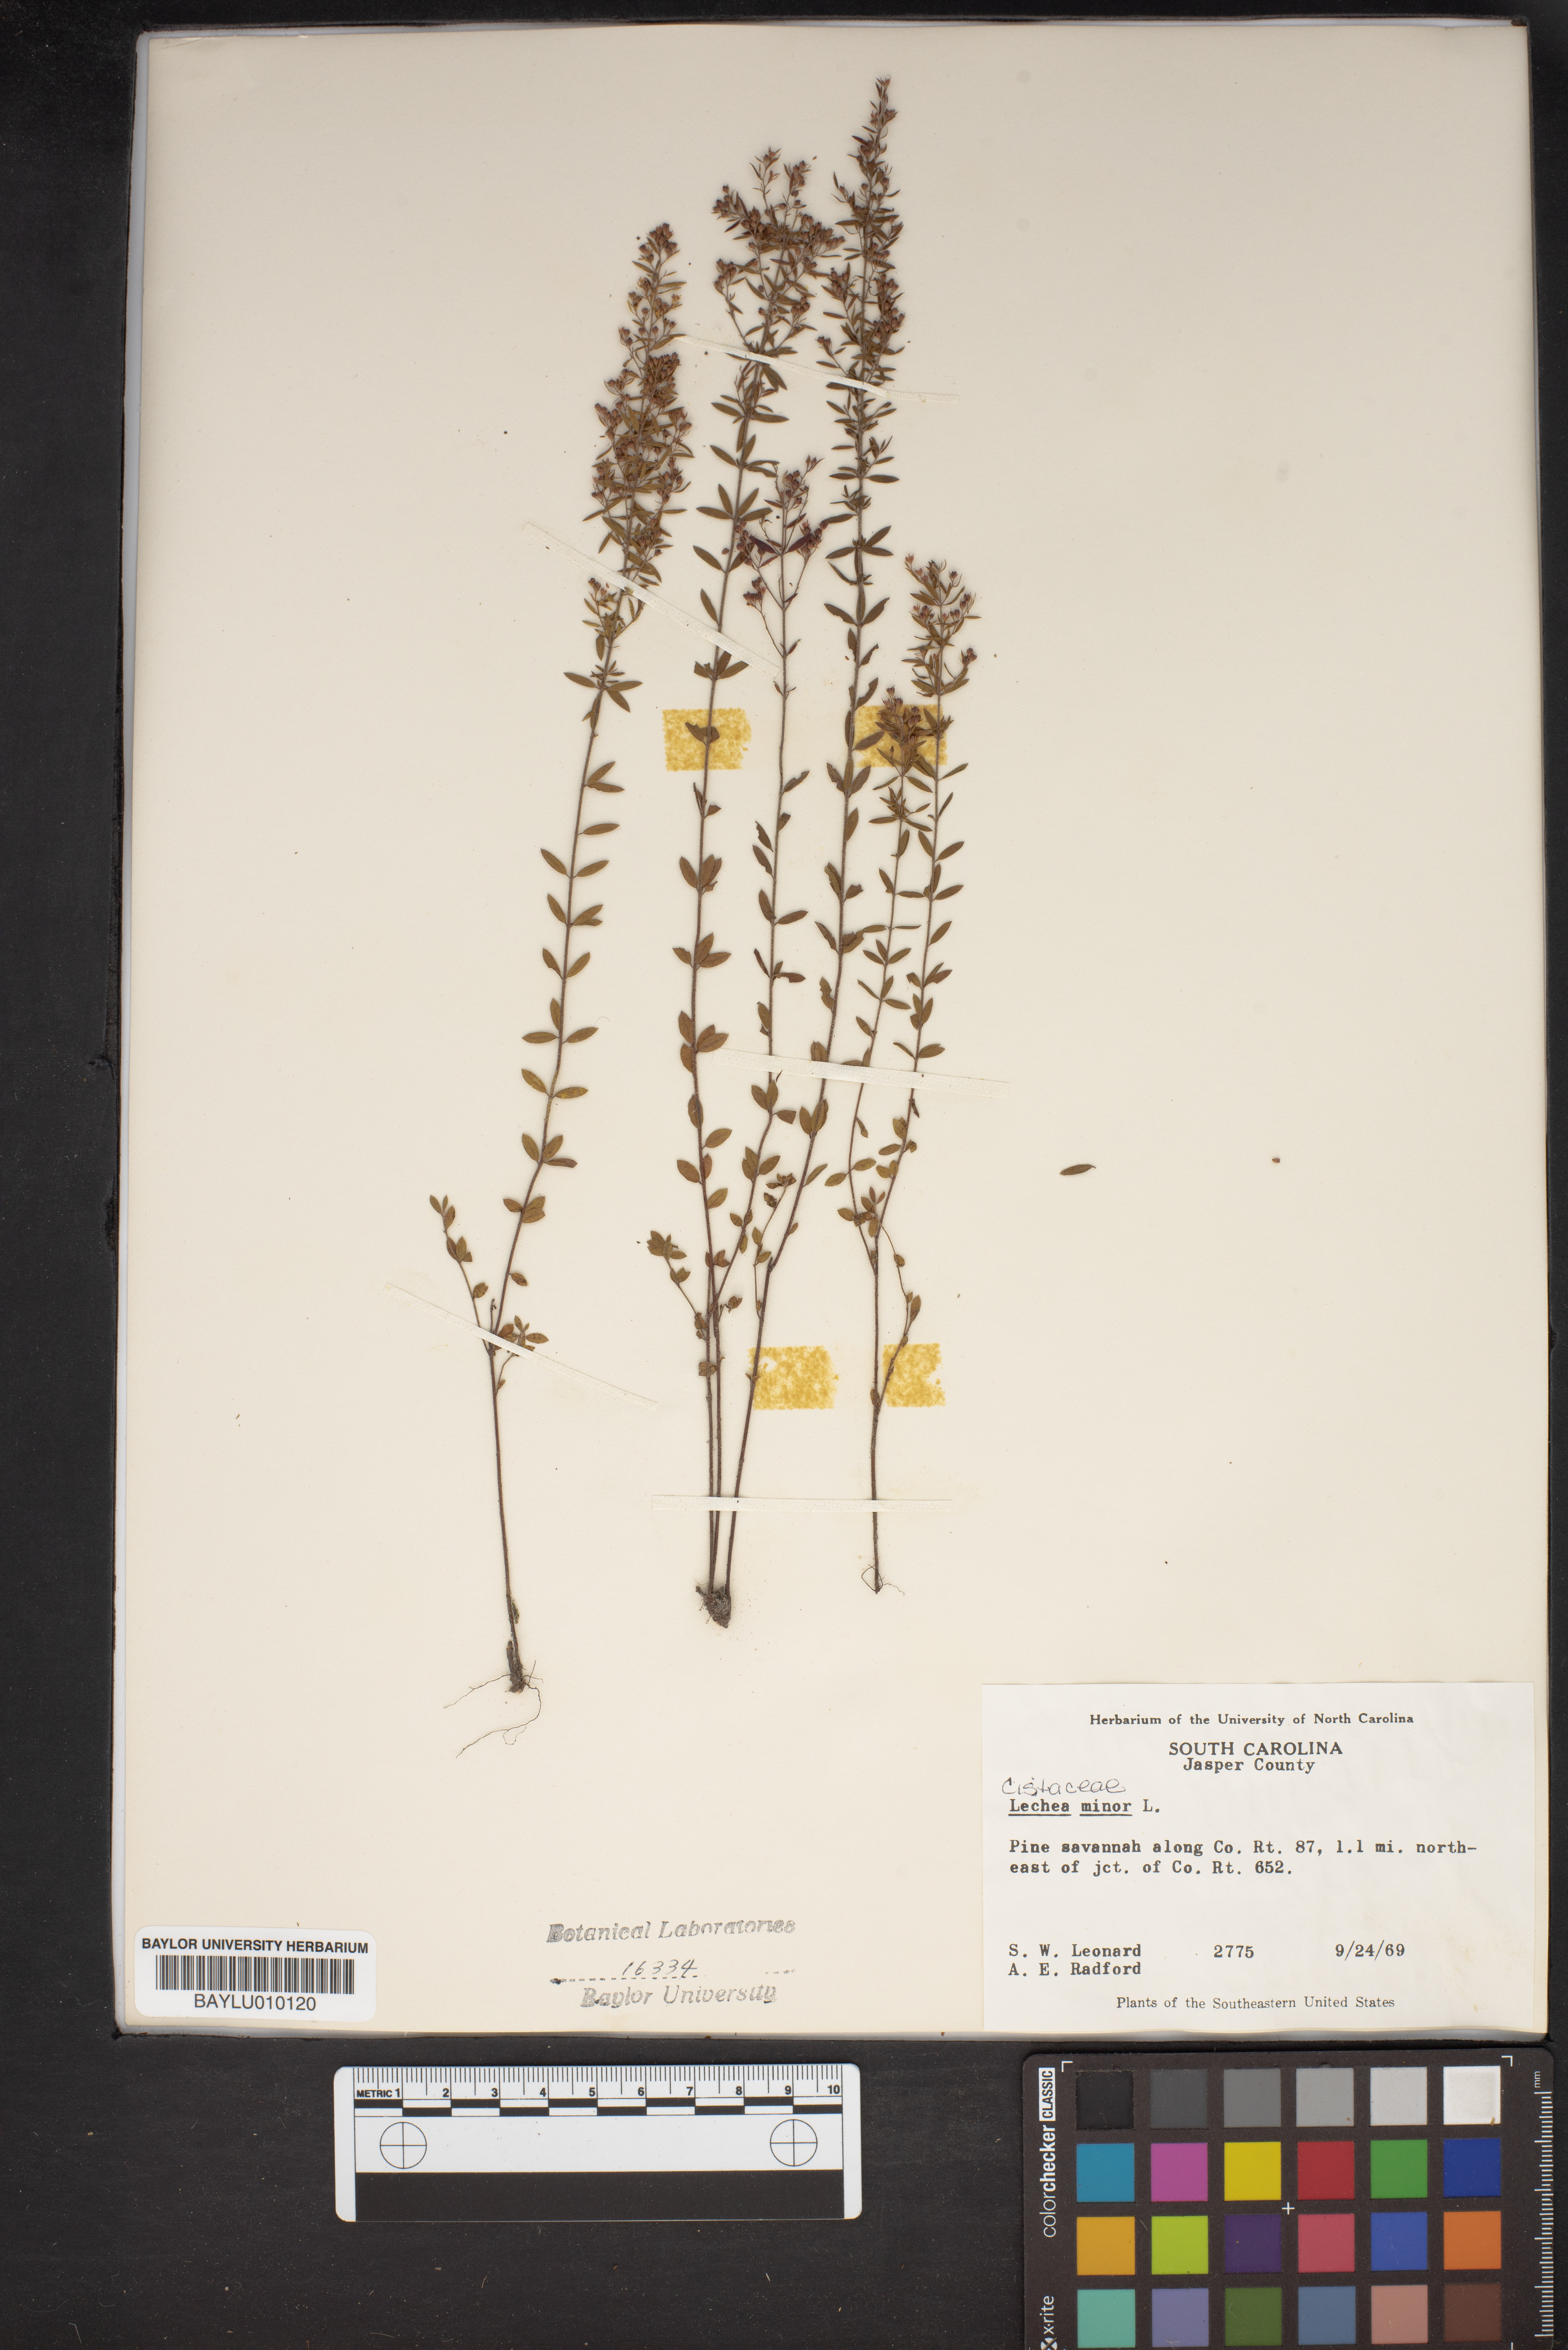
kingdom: Plantae
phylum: Tracheophyta
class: Magnoliopsida
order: Malvales
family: Cistaceae
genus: Lechea
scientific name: Lechea minor
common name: Thyme-leaf pinweed
